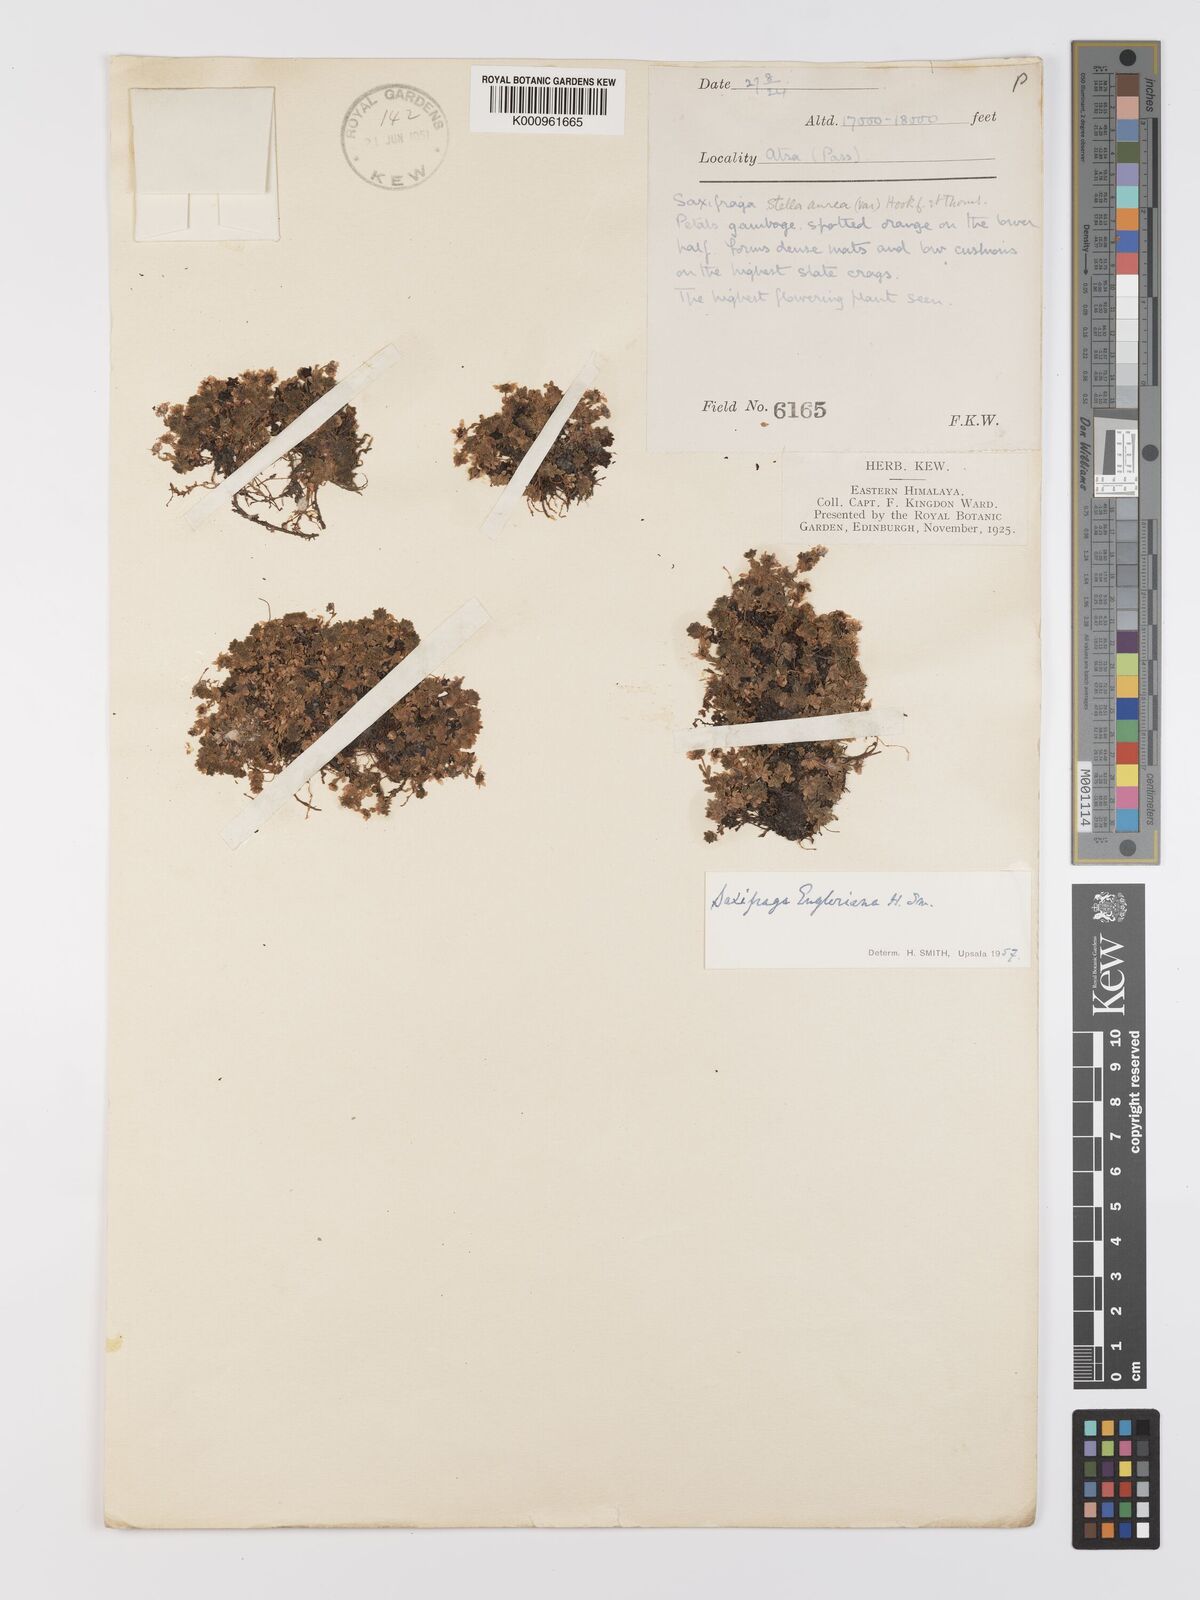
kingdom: Plantae
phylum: Tracheophyta
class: Magnoliopsida
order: Saxifragales
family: Saxifragaceae
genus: Saxifraga
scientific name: Saxifraga engleriana
